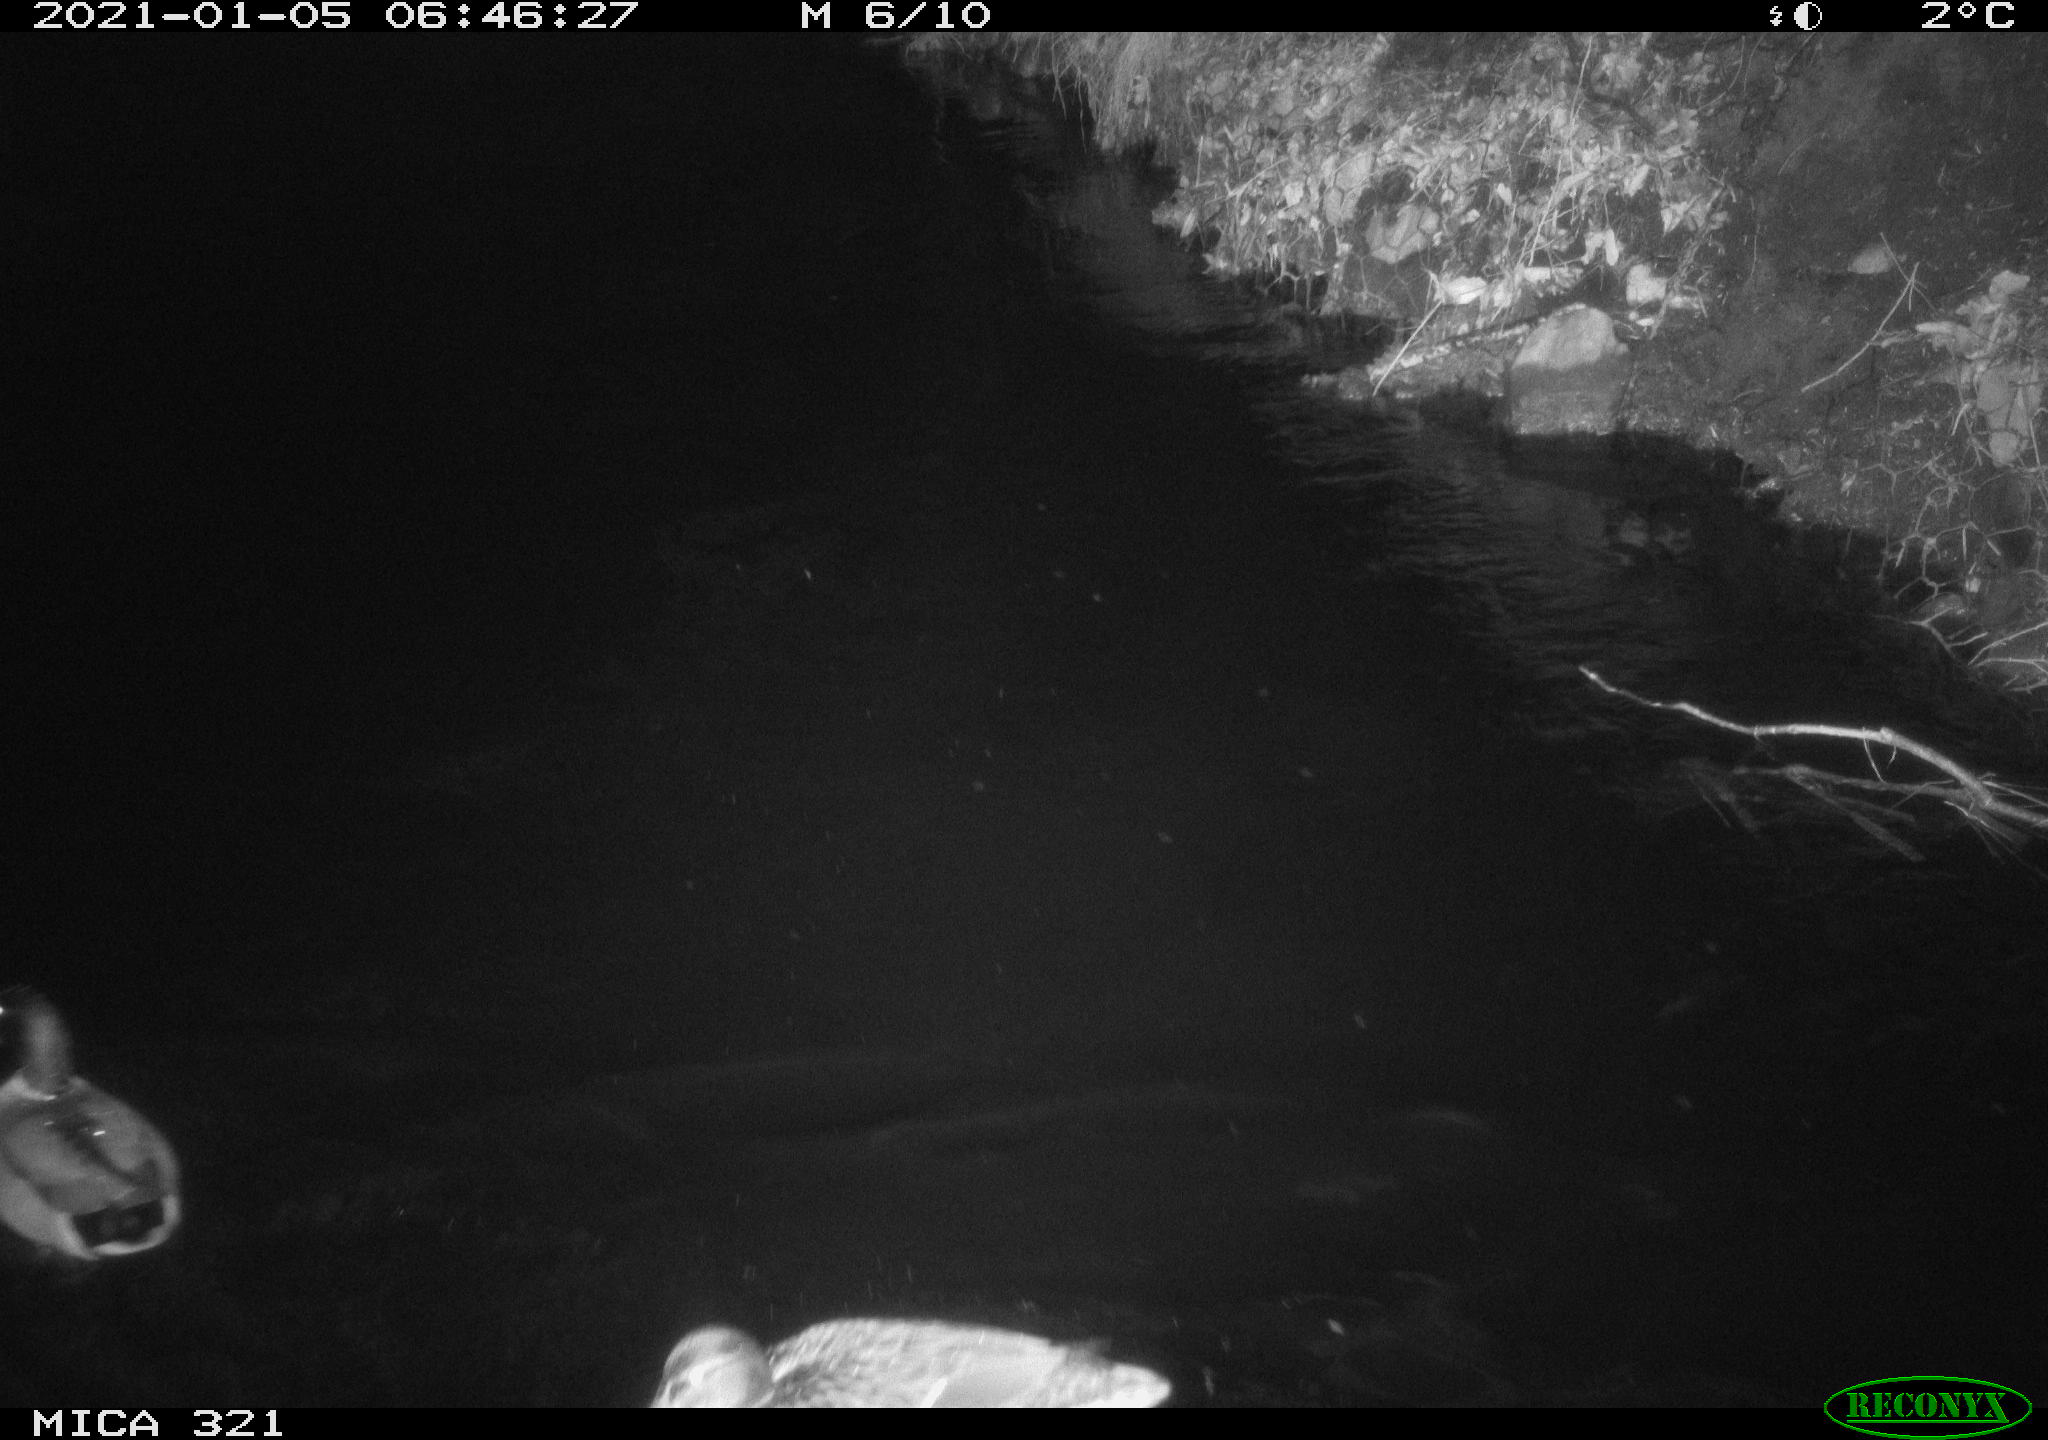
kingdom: Animalia
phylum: Chordata
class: Aves
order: Anseriformes
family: Anatidae
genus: Anas
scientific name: Anas platyrhynchos
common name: Mallard
